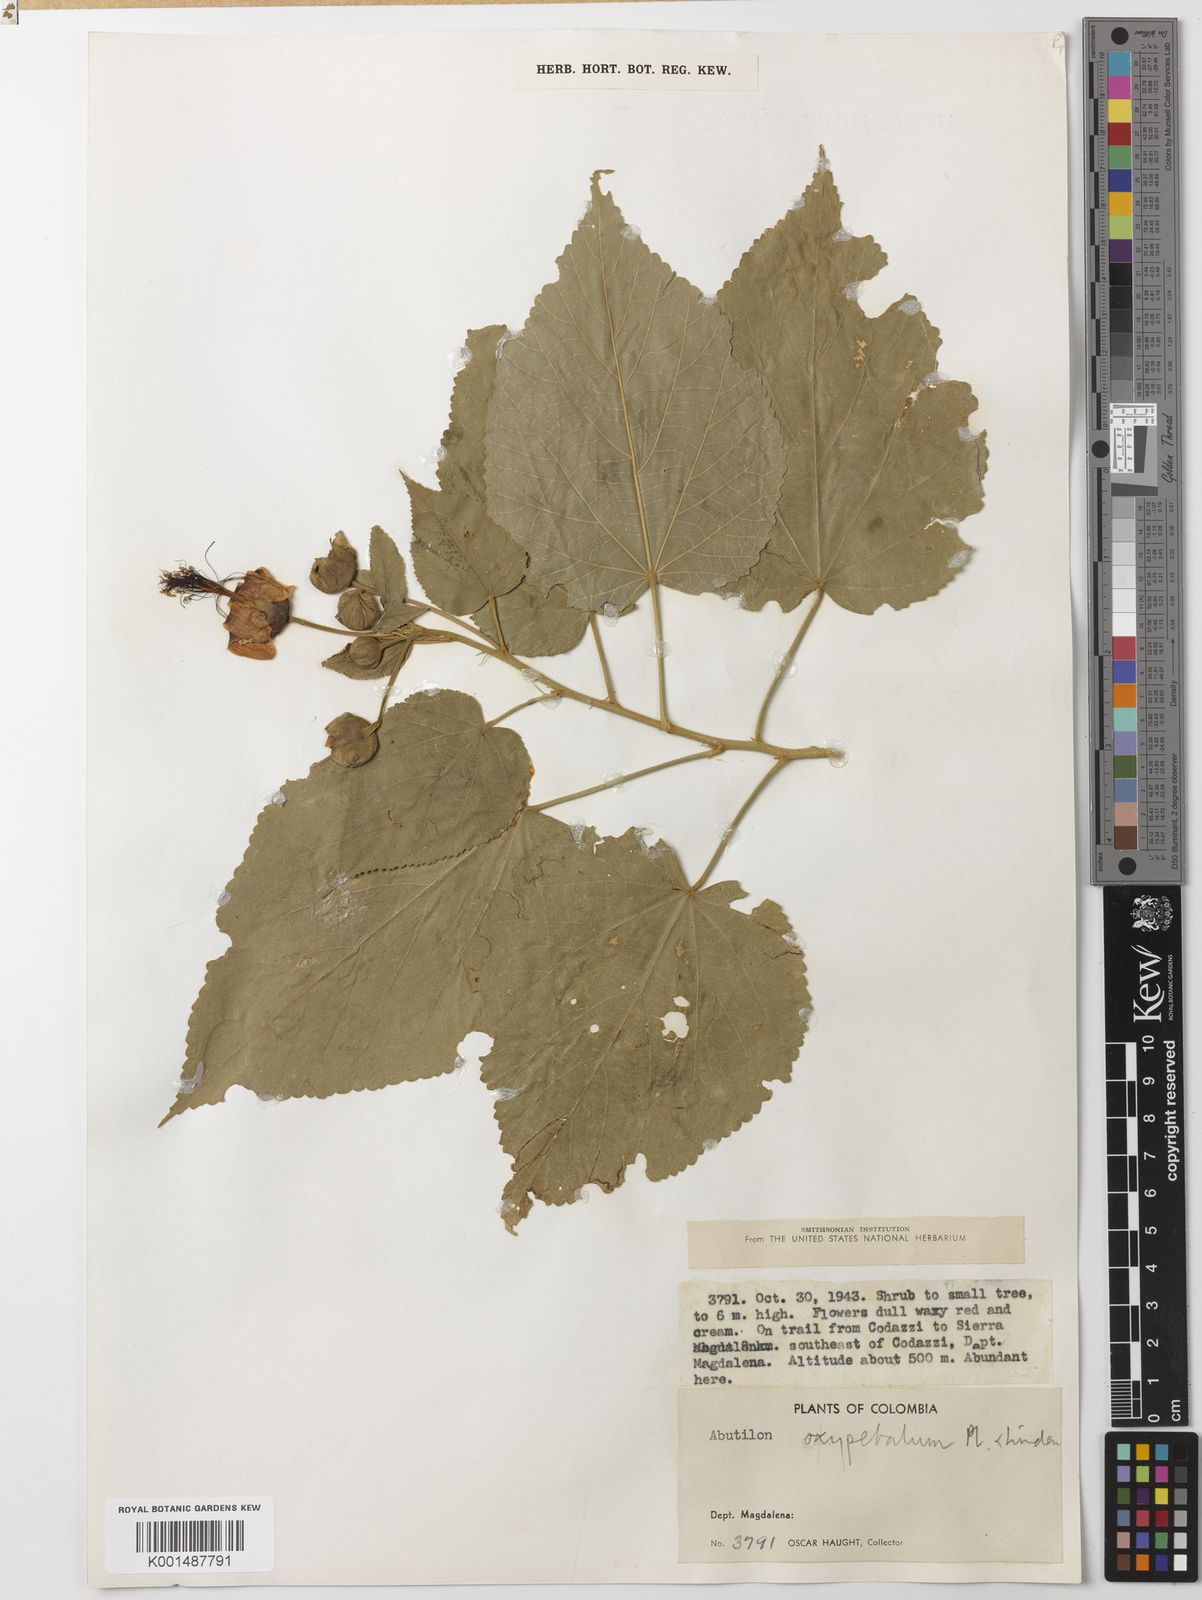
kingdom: Plantae
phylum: Tracheophyta
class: Magnoliopsida
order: Malvales
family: Malvaceae
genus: Dendrosida
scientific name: Dendrosida oxypetala
